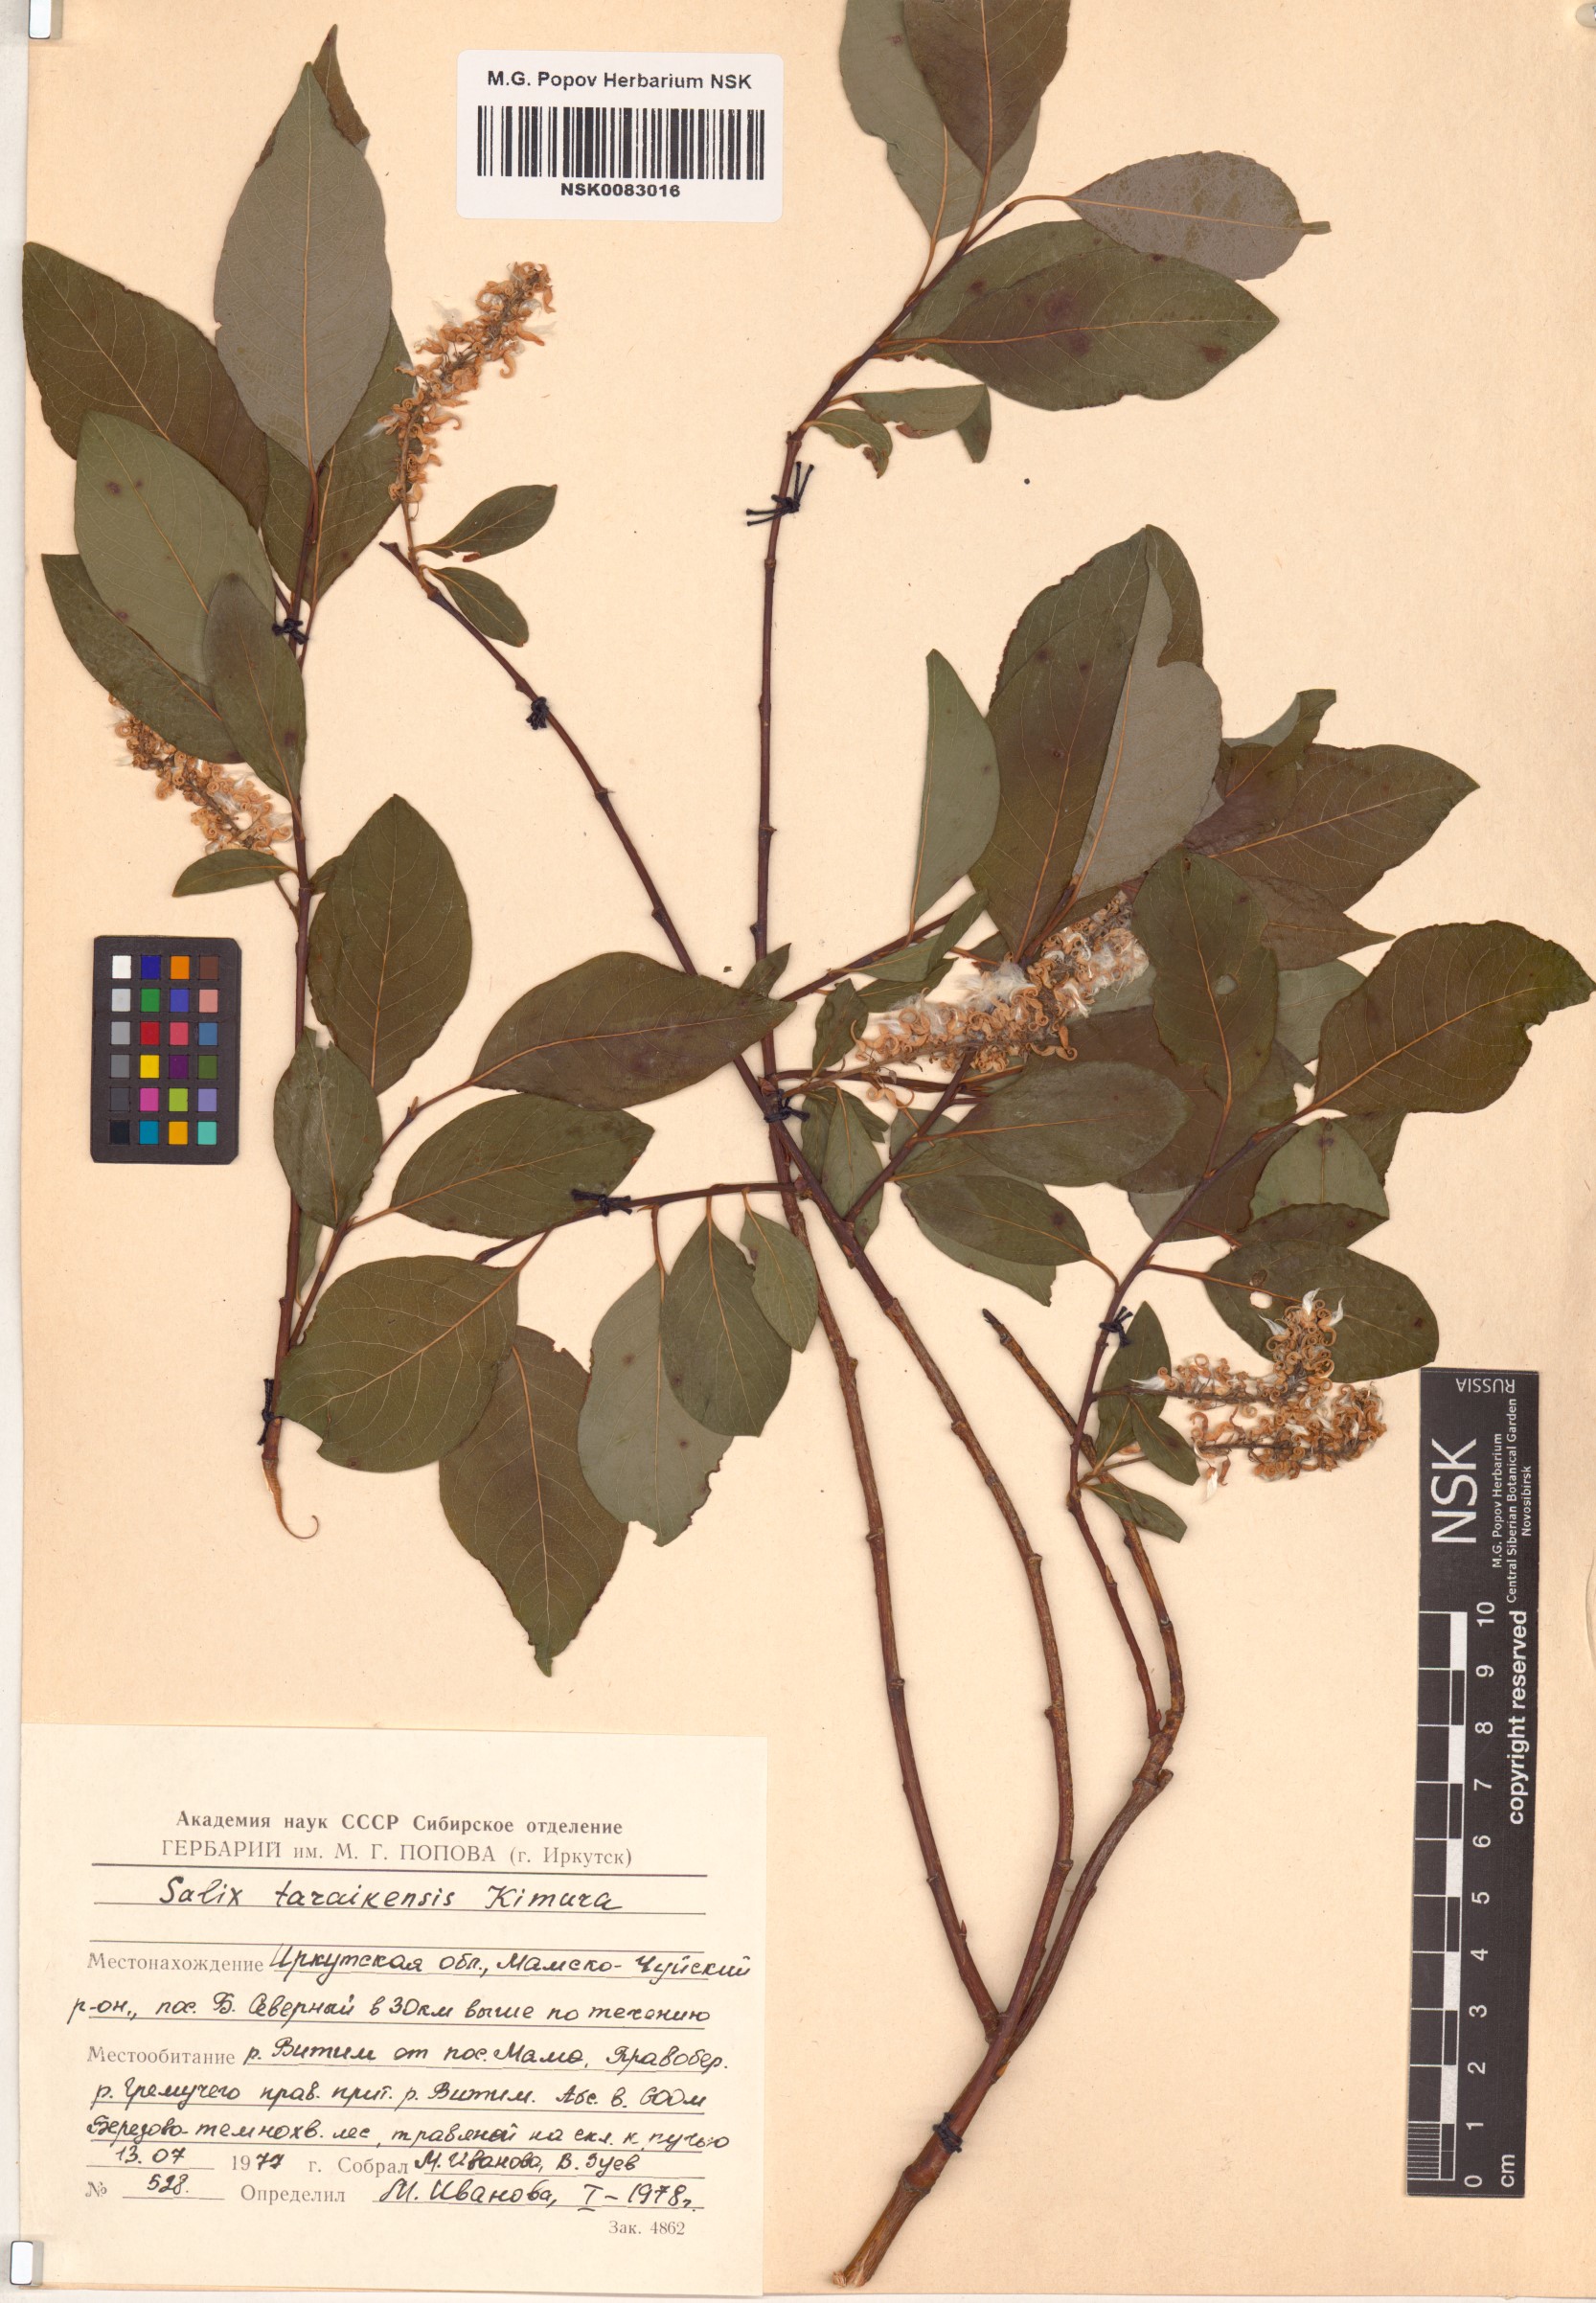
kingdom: Plantae
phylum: Tracheophyta
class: Magnoliopsida
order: Malpighiales
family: Salicaceae
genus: Salix
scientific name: Salix taraikensis
